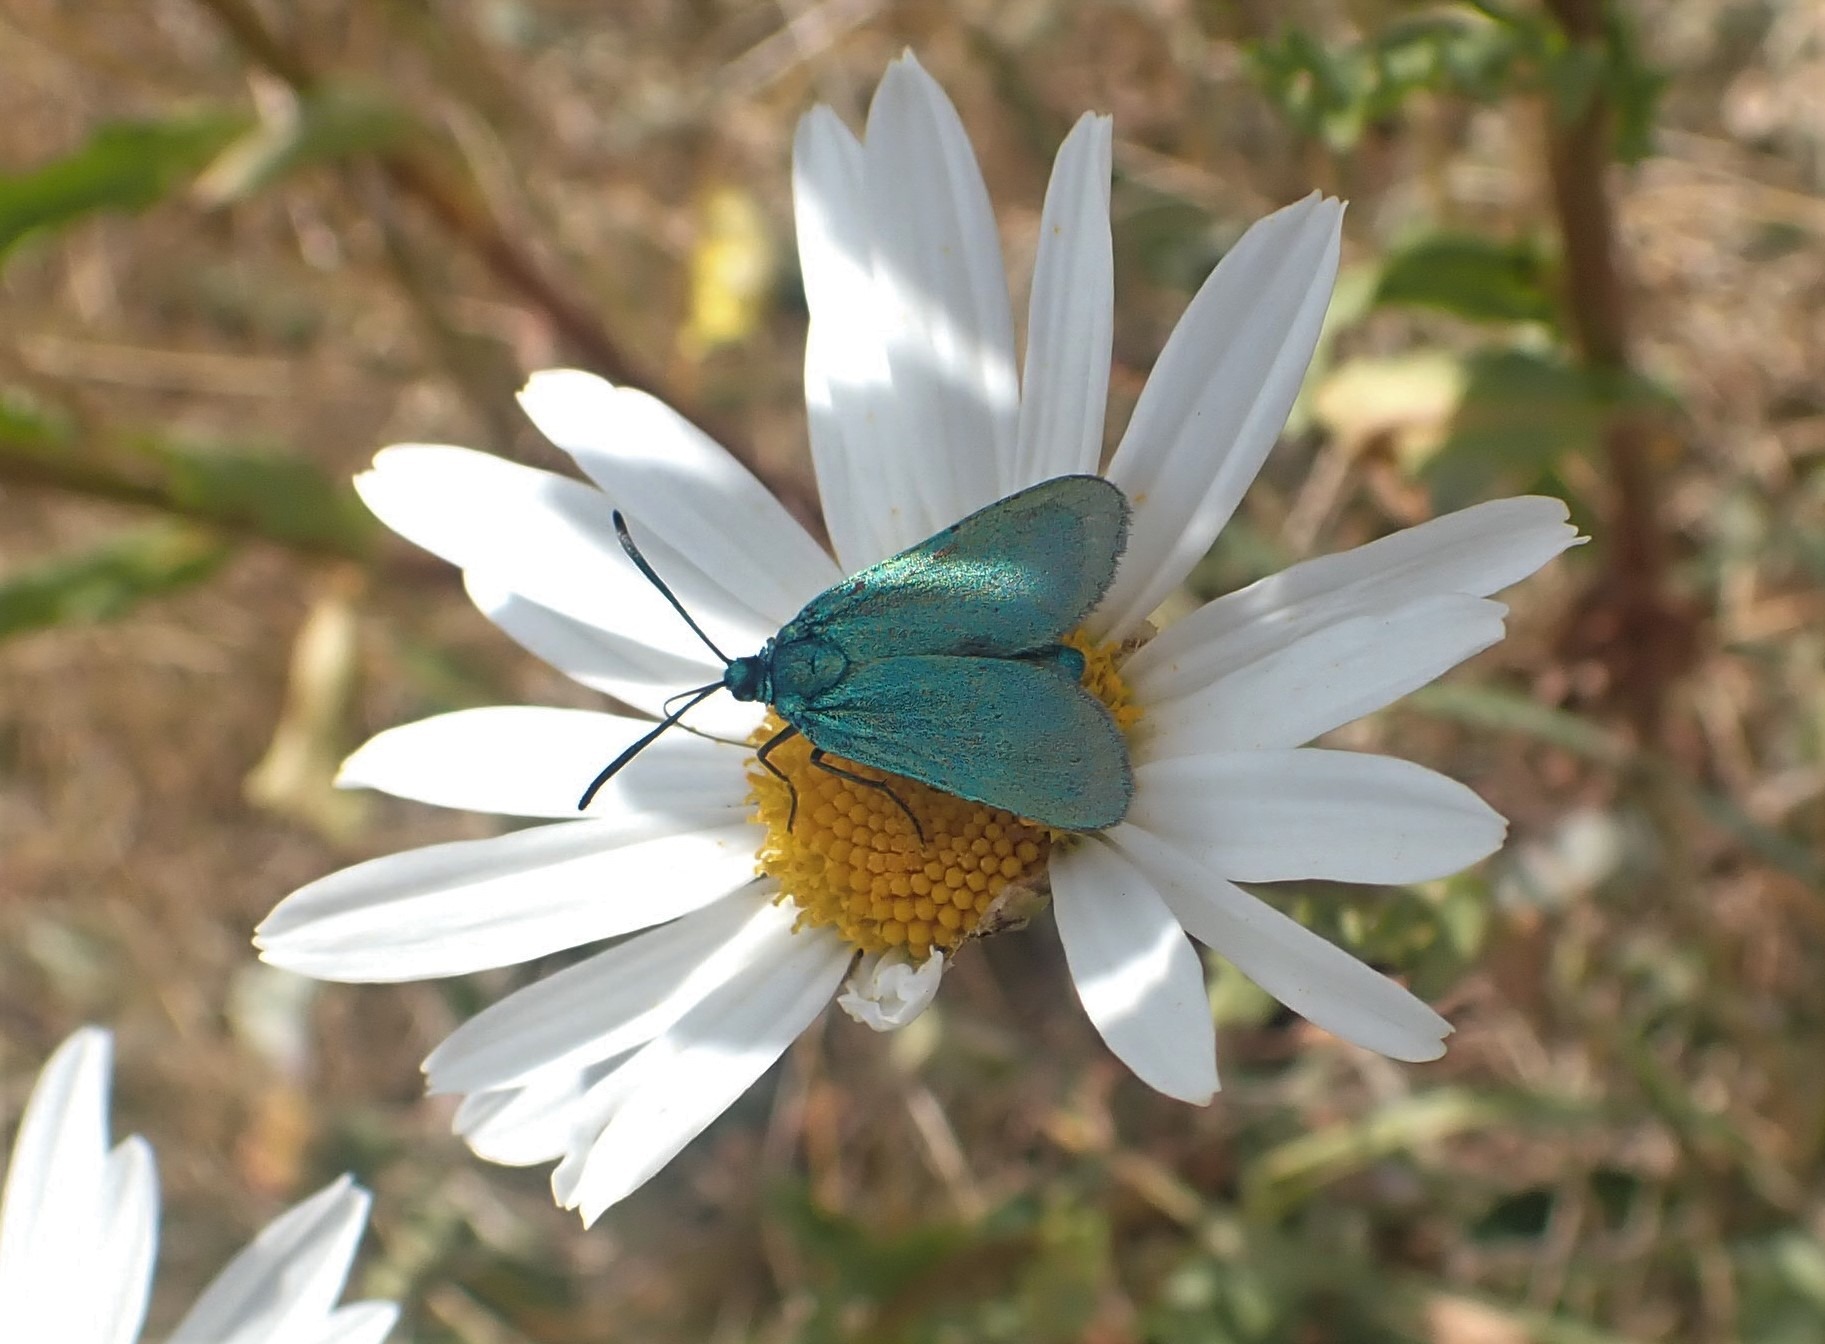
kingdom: Animalia
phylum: Arthropoda
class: Insecta
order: Lepidoptera
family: Zygaenidae
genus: Adscita
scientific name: Adscita statices
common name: Metalvinge
